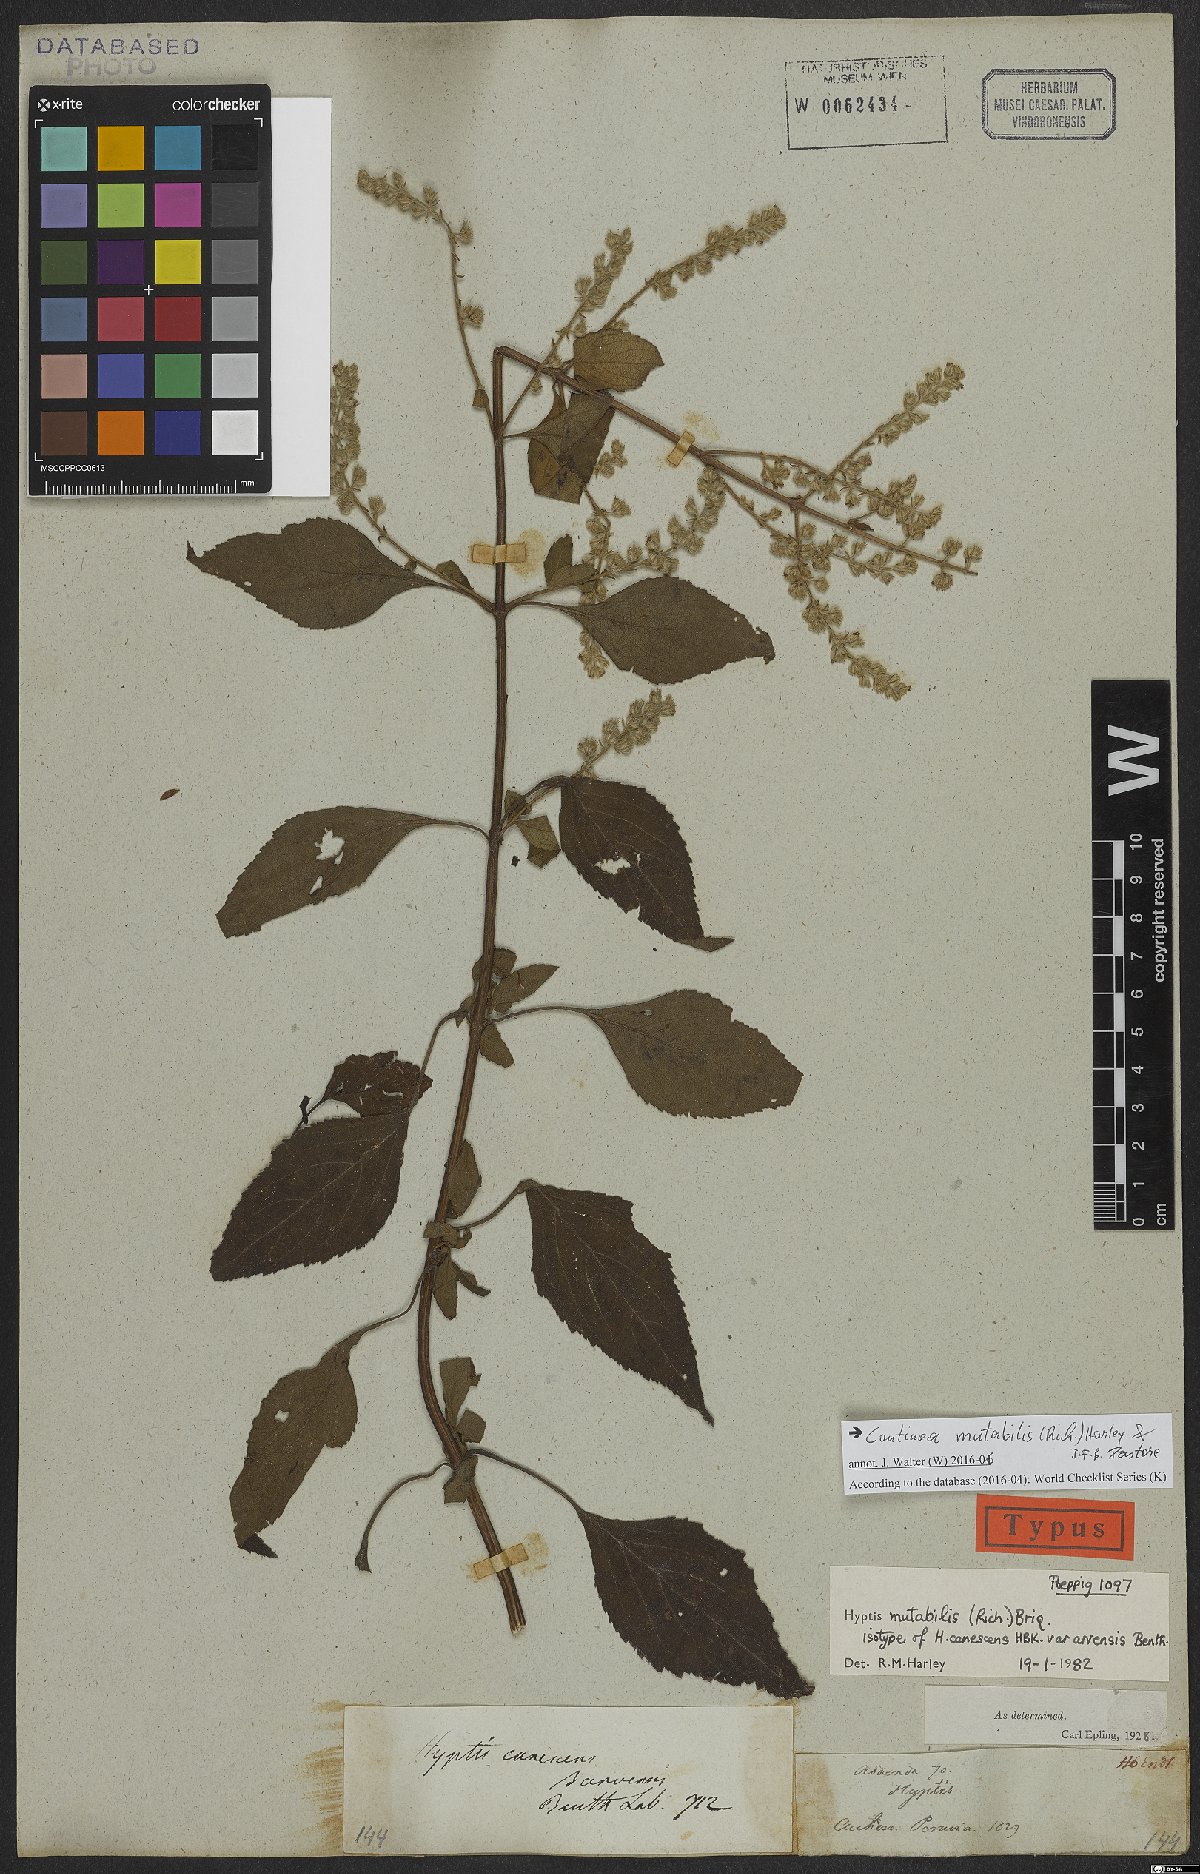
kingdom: Plantae
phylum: Tracheophyta
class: Magnoliopsida
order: Lamiales
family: Lamiaceae
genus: Cantinoa
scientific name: Cantinoa mutabilis
